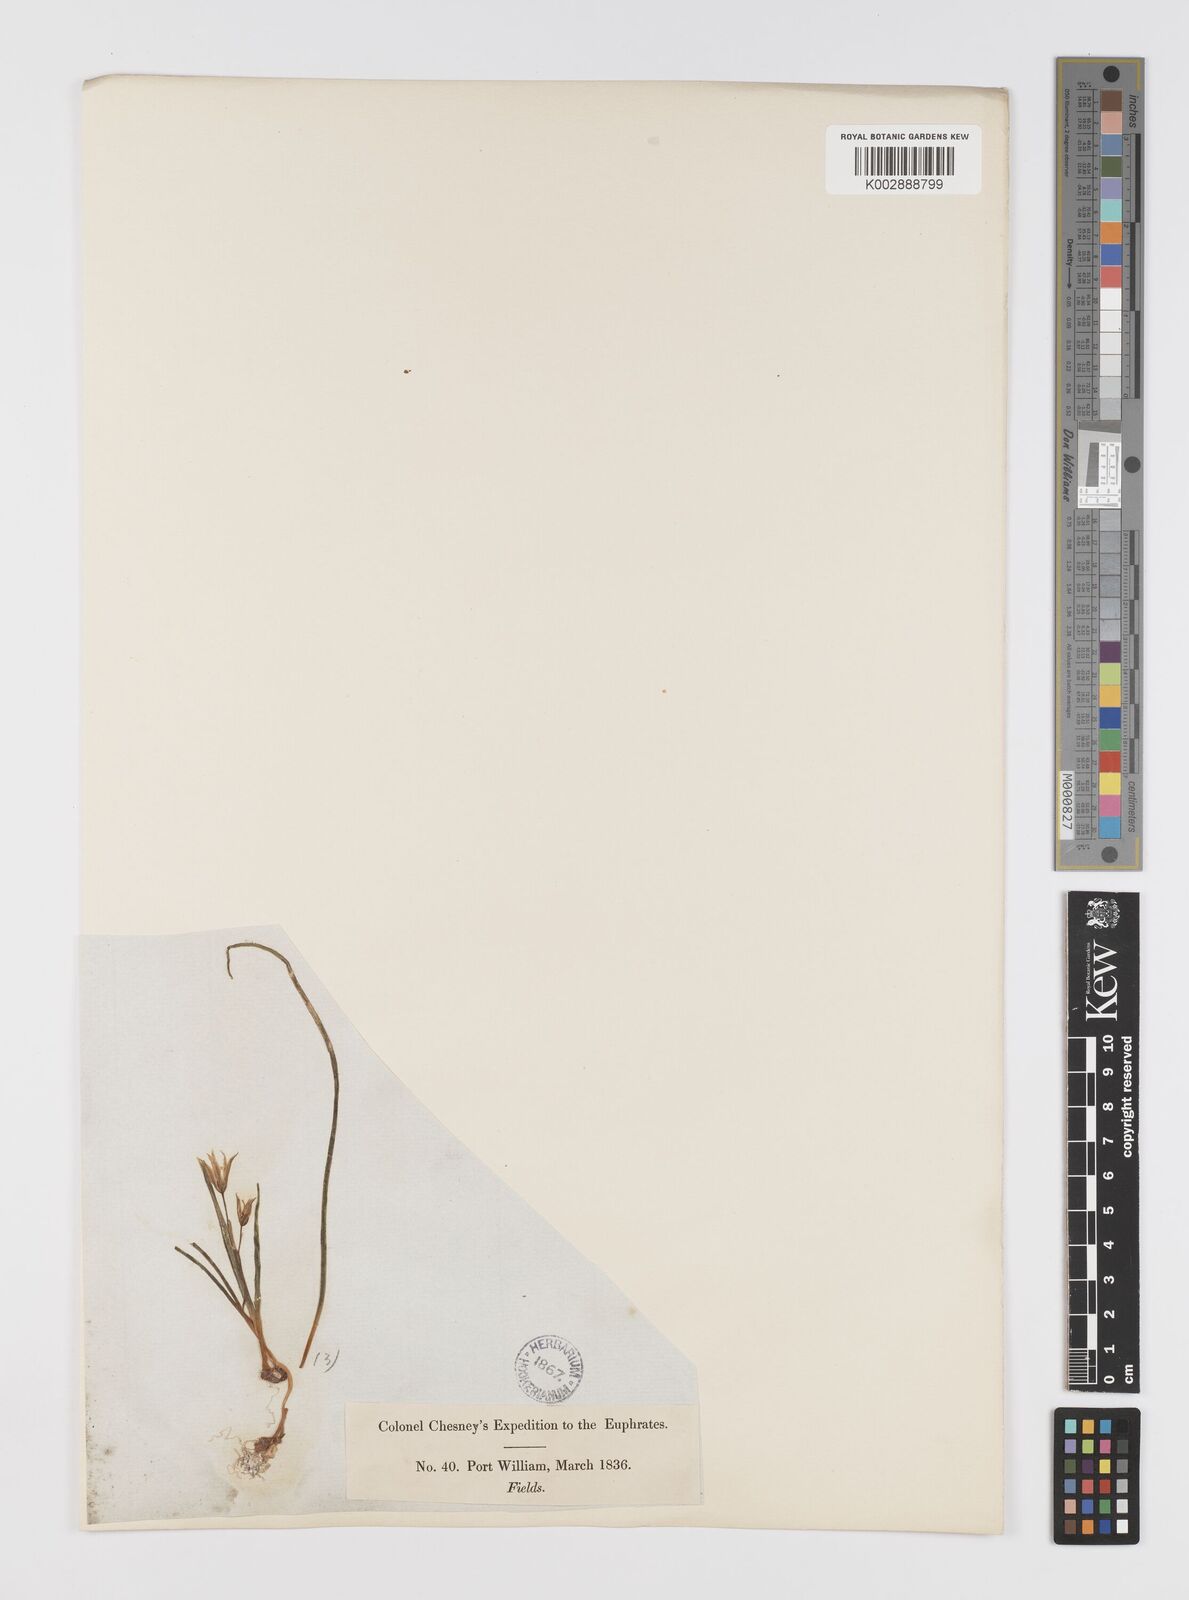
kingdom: Plantae
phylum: Tracheophyta
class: Liliopsida
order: Liliales
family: Liliaceae
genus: Gagea
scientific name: Gagea
